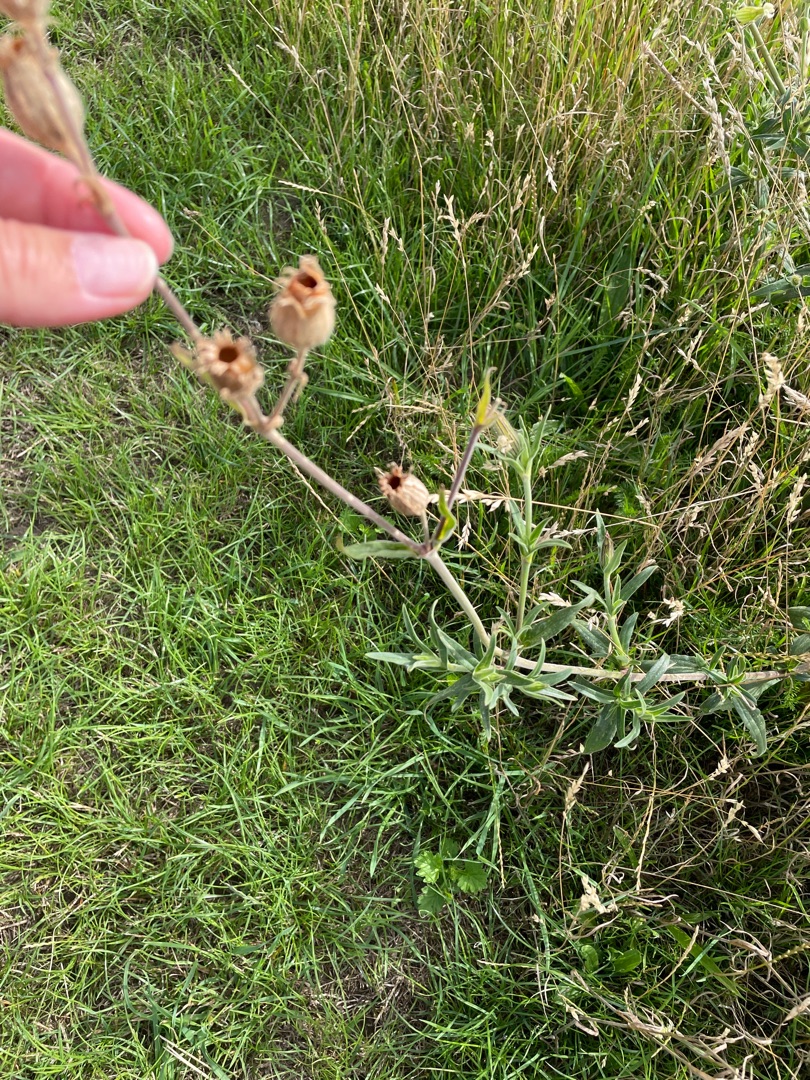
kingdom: Plantae
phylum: Tracheophyta
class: Magnoliopsida
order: Caryophyllales
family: Caryophyllaceae
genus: Silene
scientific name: Silene latifolia
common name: Aftenpragtstjerne
